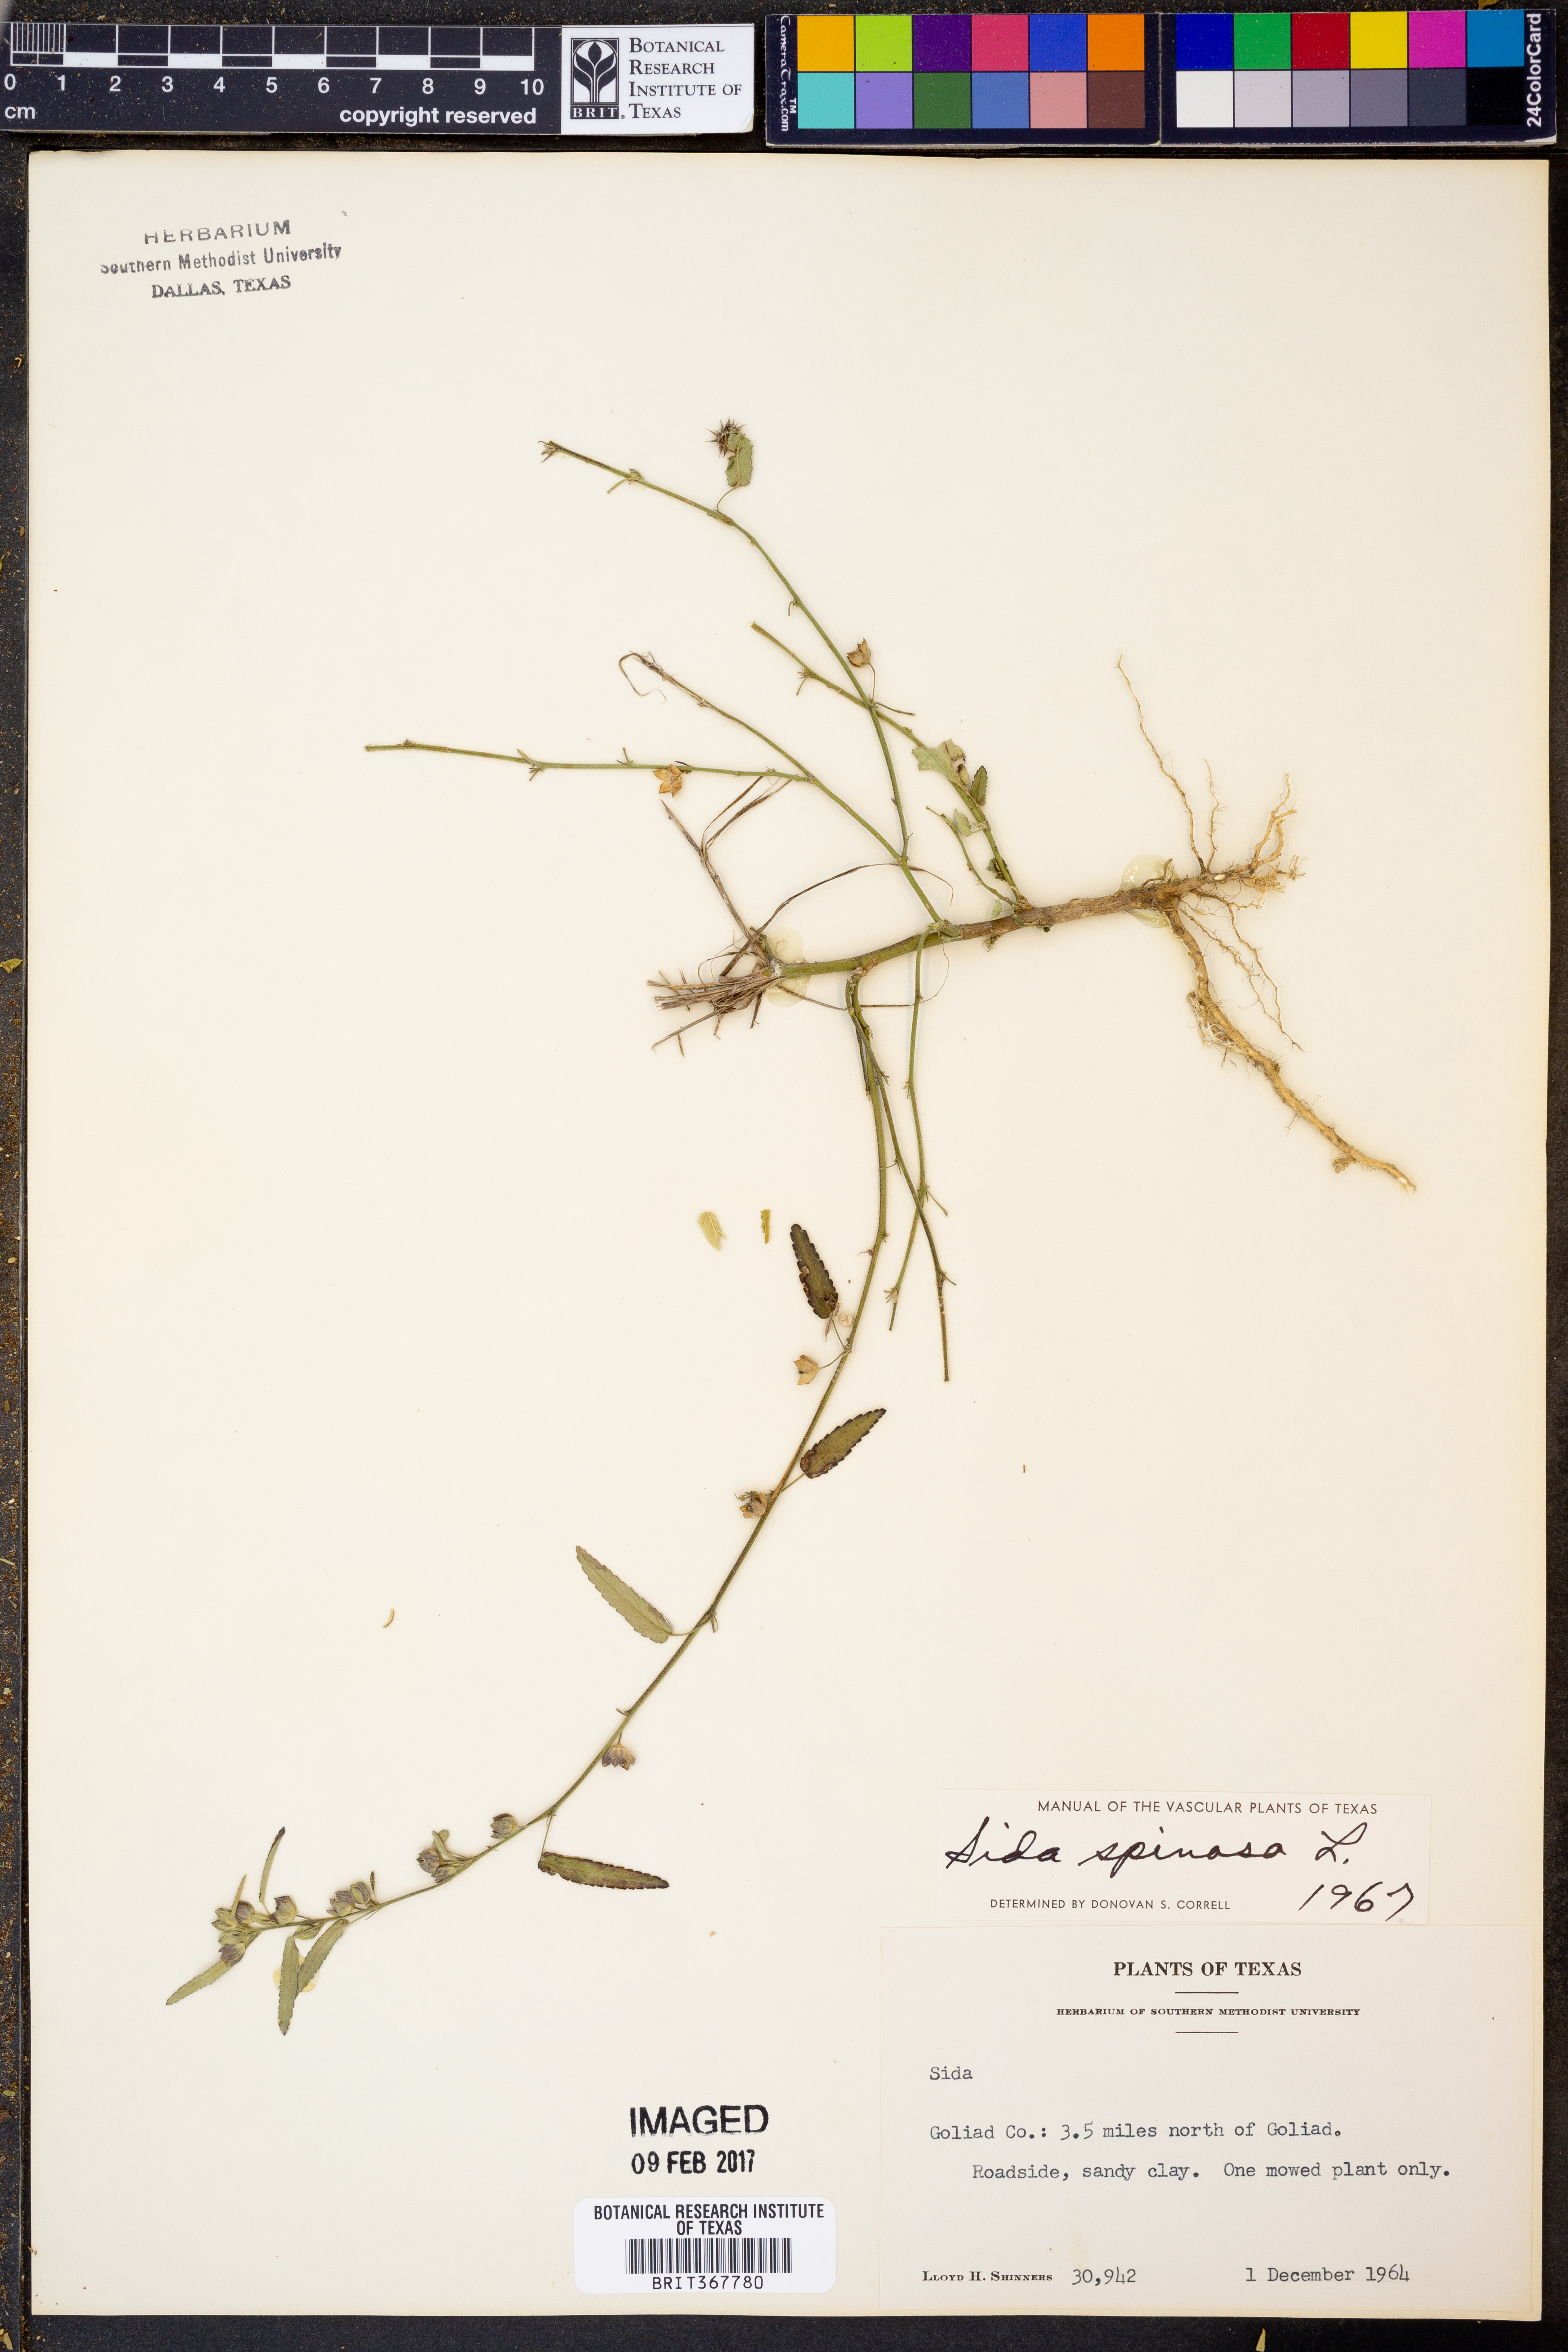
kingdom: Plantae
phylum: Tracheophyta
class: Magnoliopsida
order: Malvales
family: Malvaceae
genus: Sida
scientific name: Sida spinosa
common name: Prickly fanpetals
